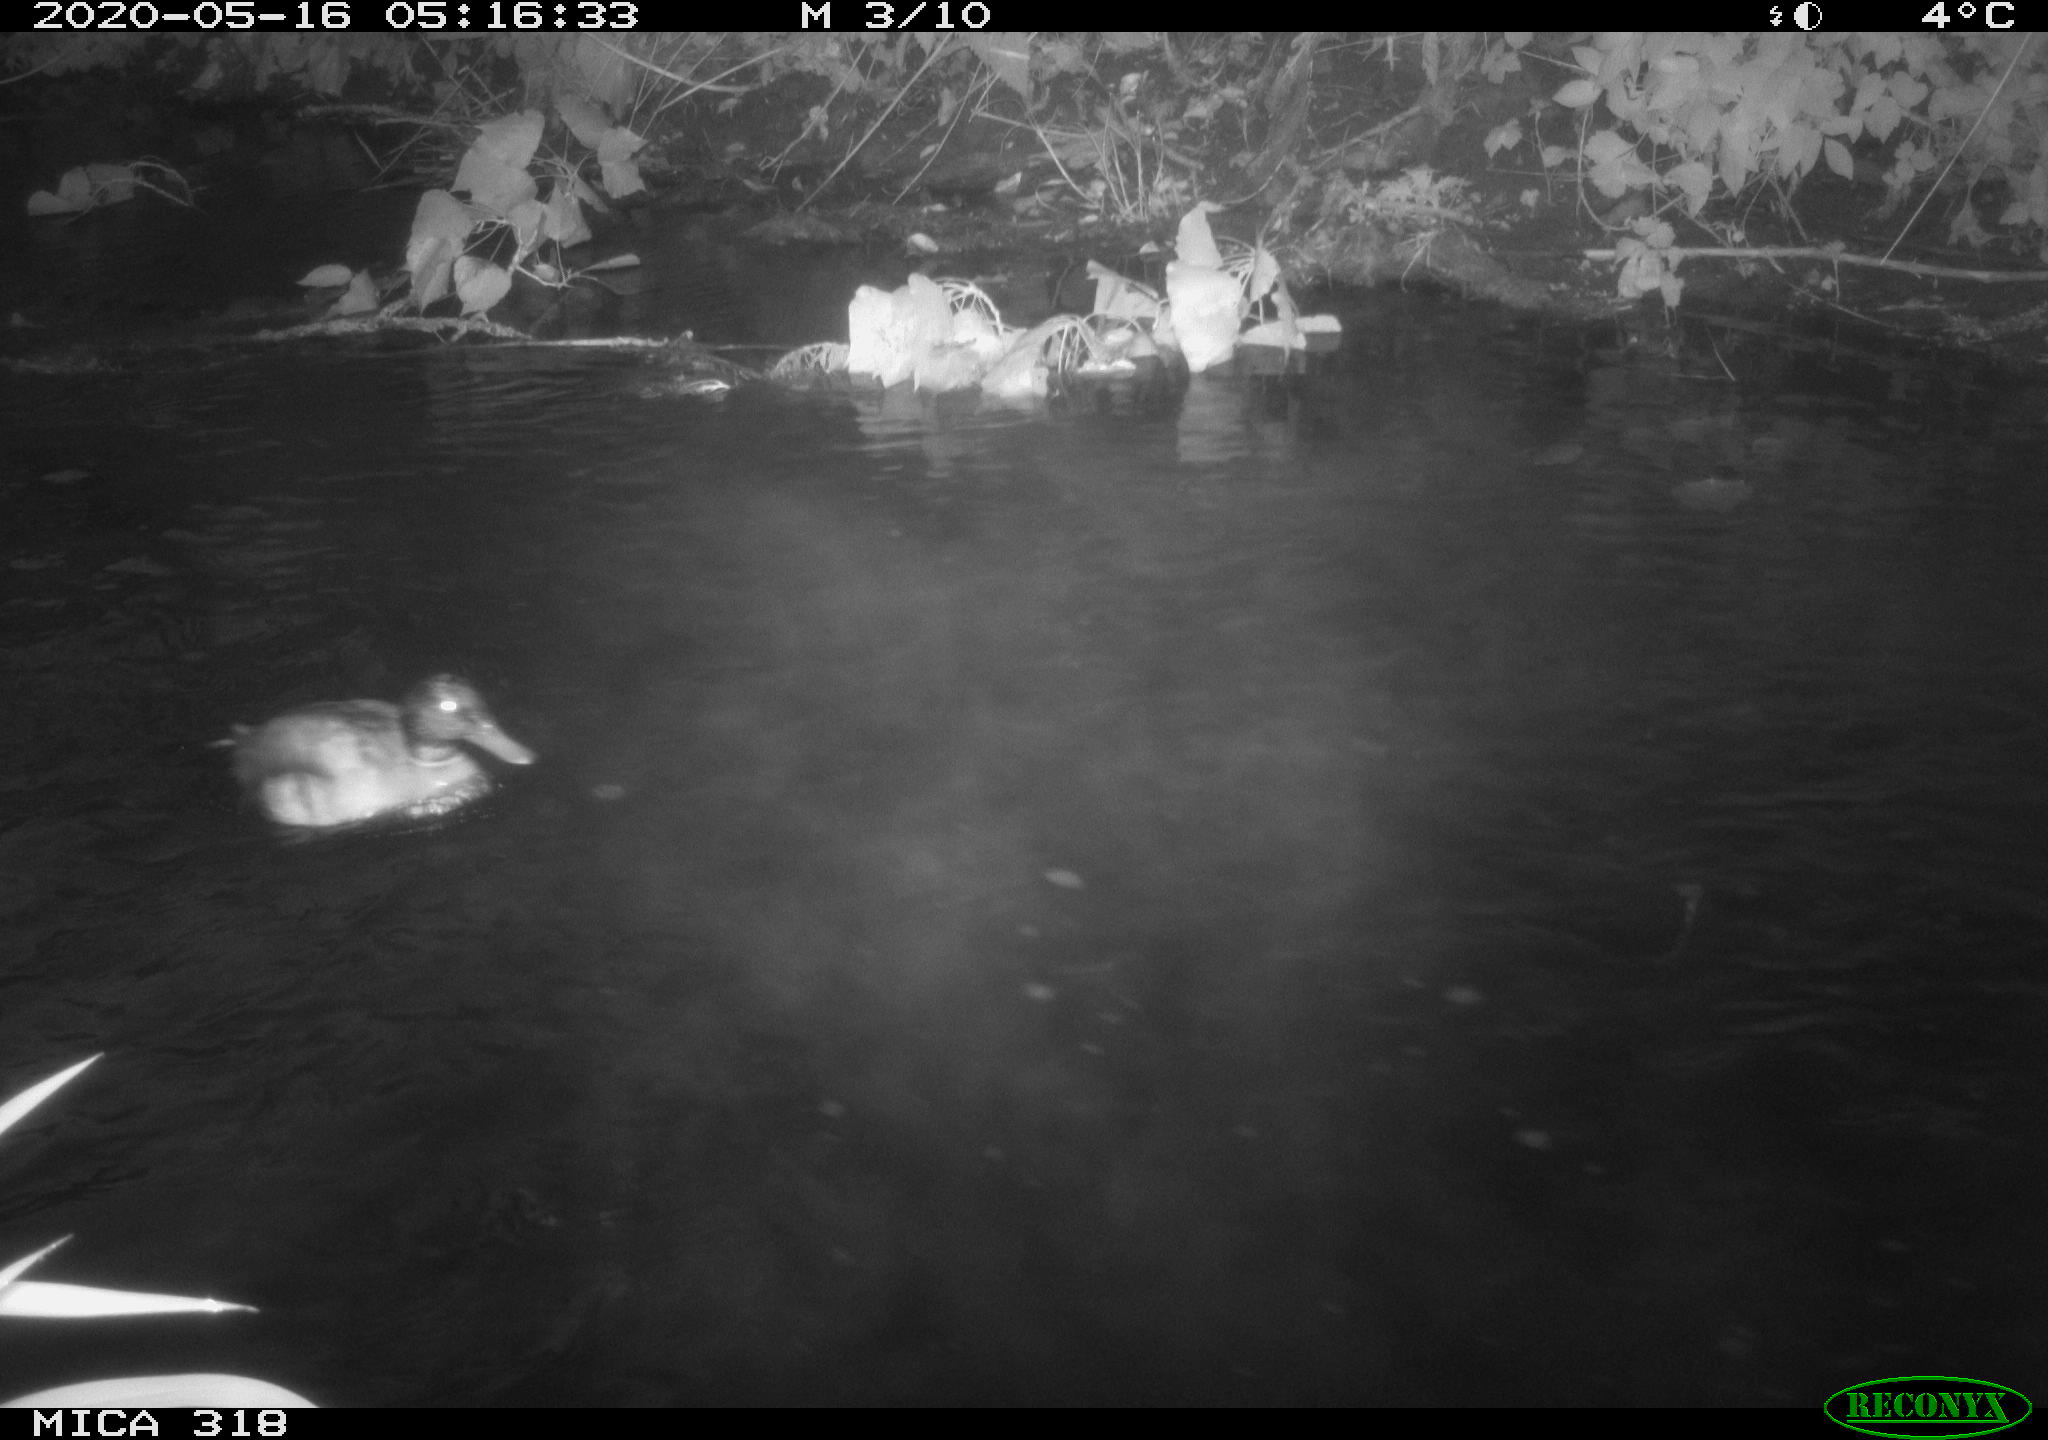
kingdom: Animalia
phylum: Chordata
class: Aves
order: Anseriformes
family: Anatidae
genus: Anas
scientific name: Anas platyrhynchos
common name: Mallard
